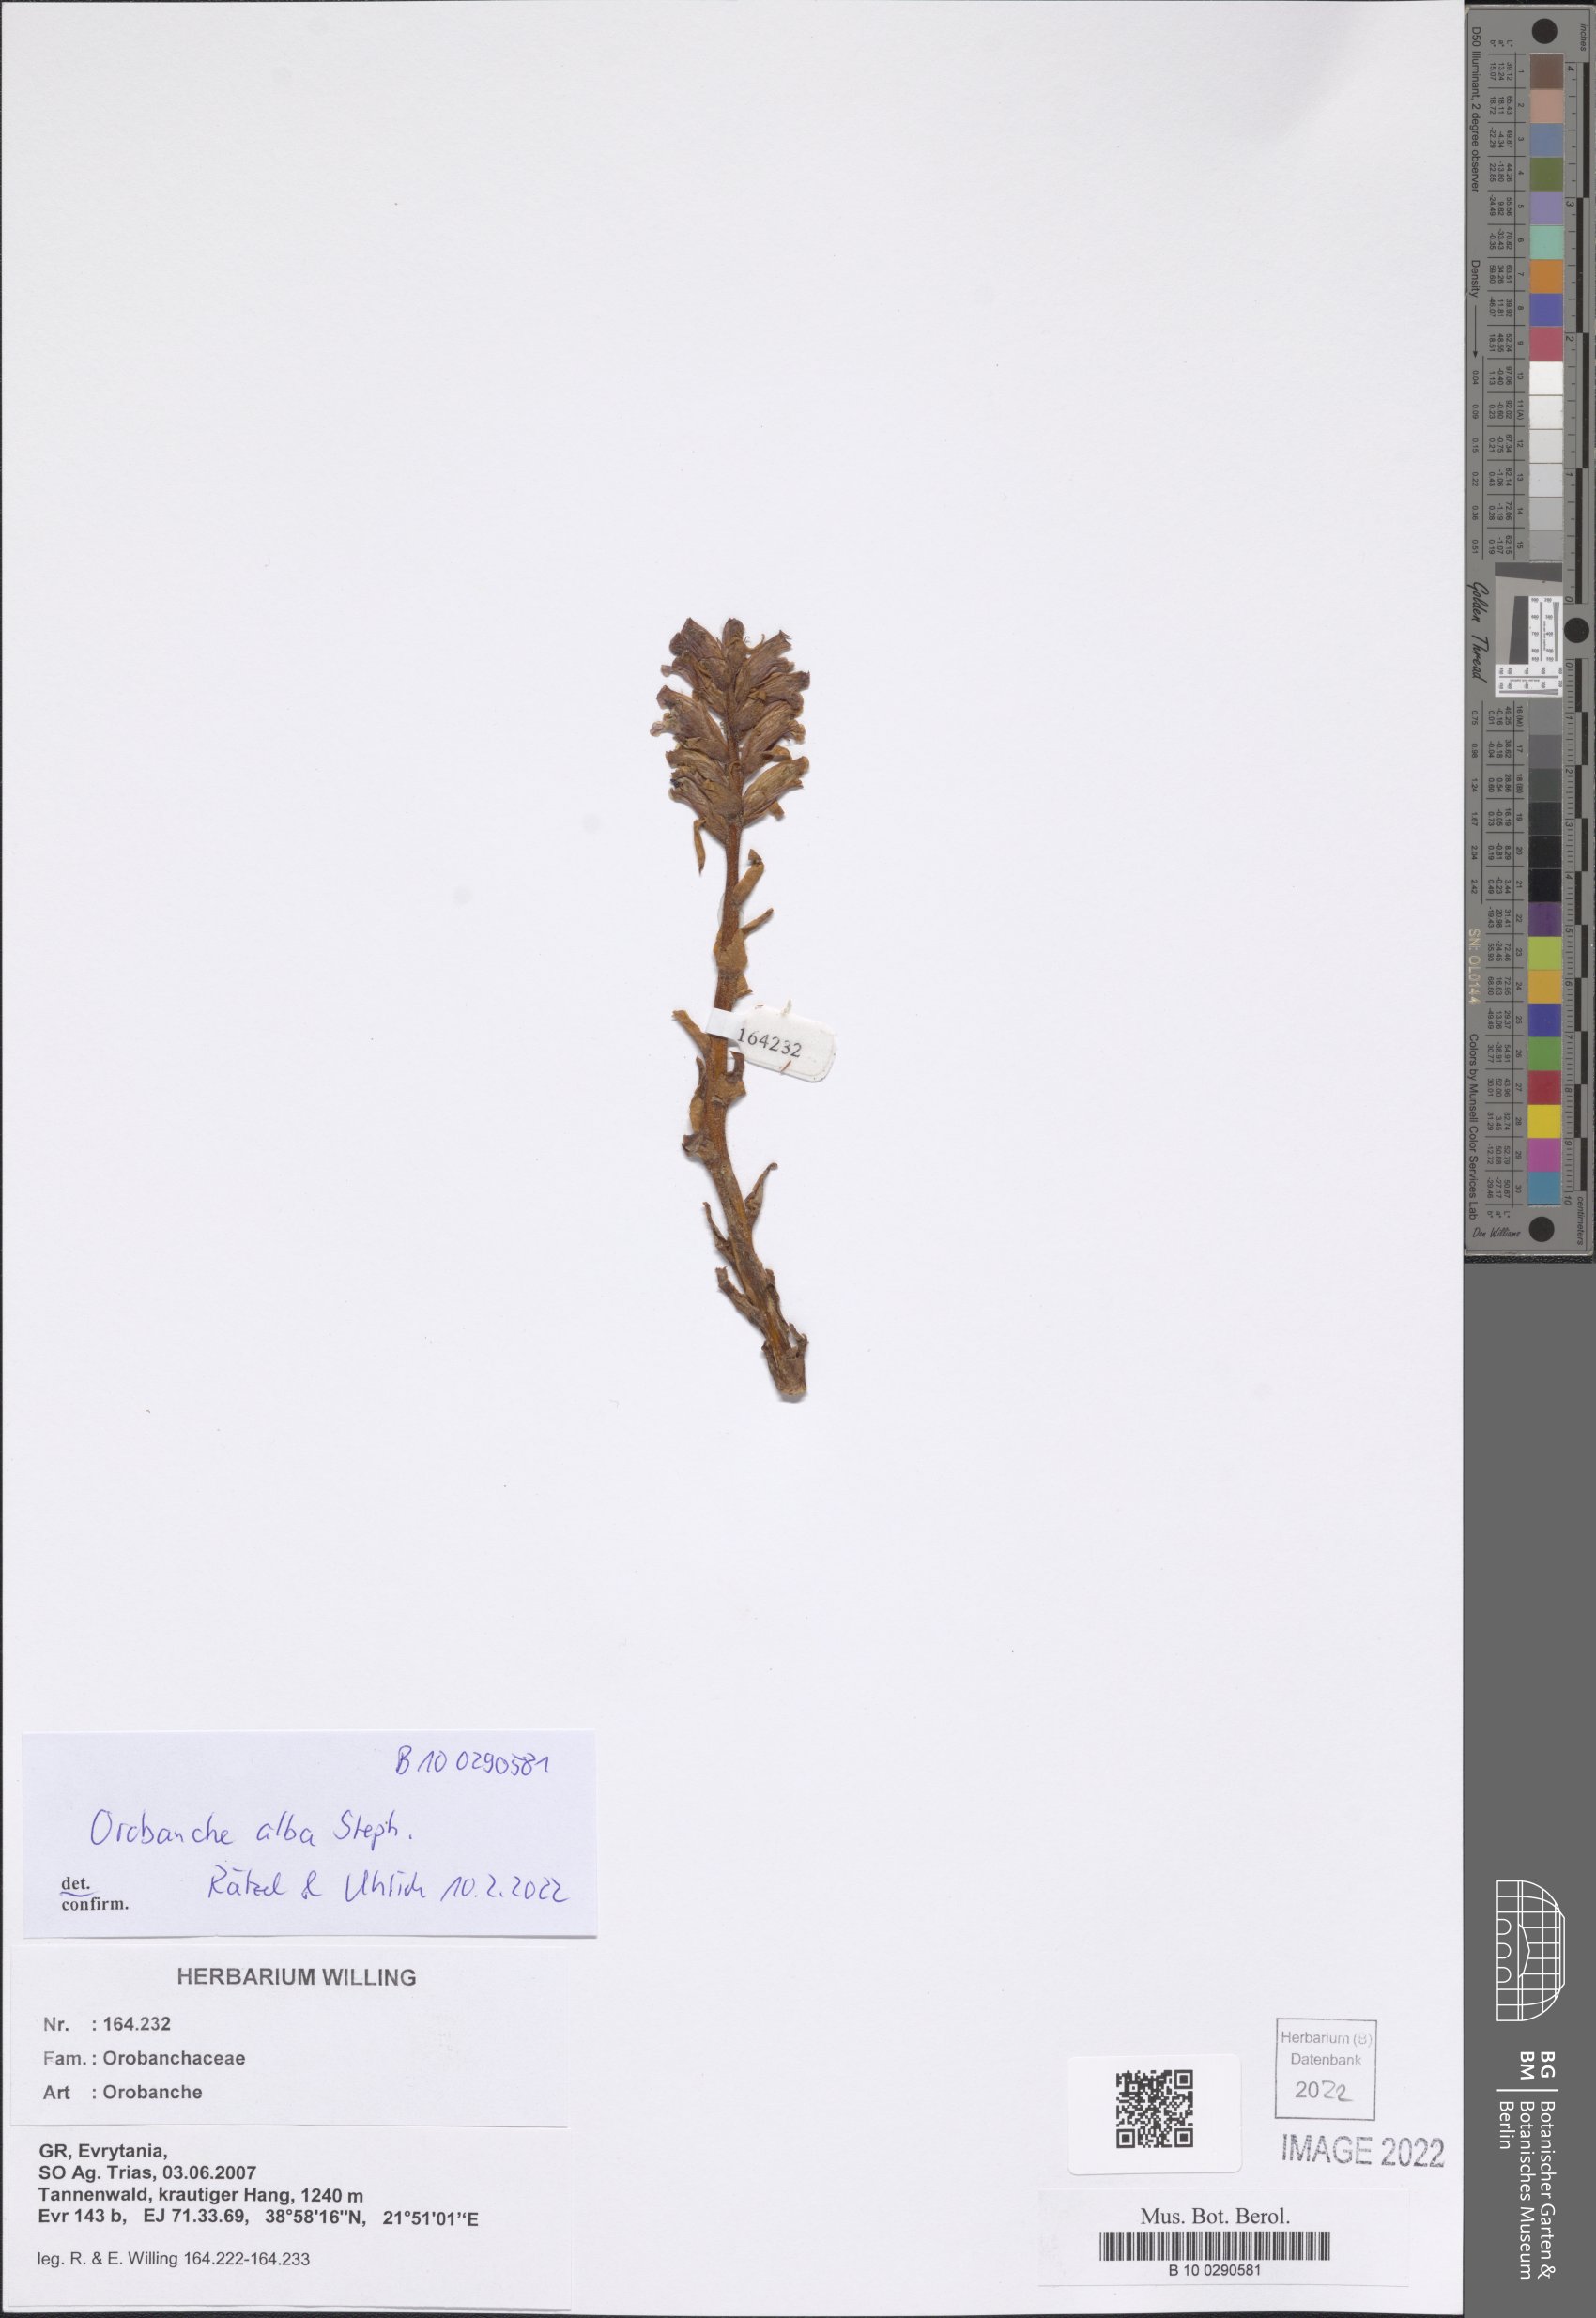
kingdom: Plantae
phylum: Tracheophyta
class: Magnoliopsida
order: Lamiales
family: Orobanchaceae
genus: Orobanche
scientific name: Orobanche alba
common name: Thyme broomrape
